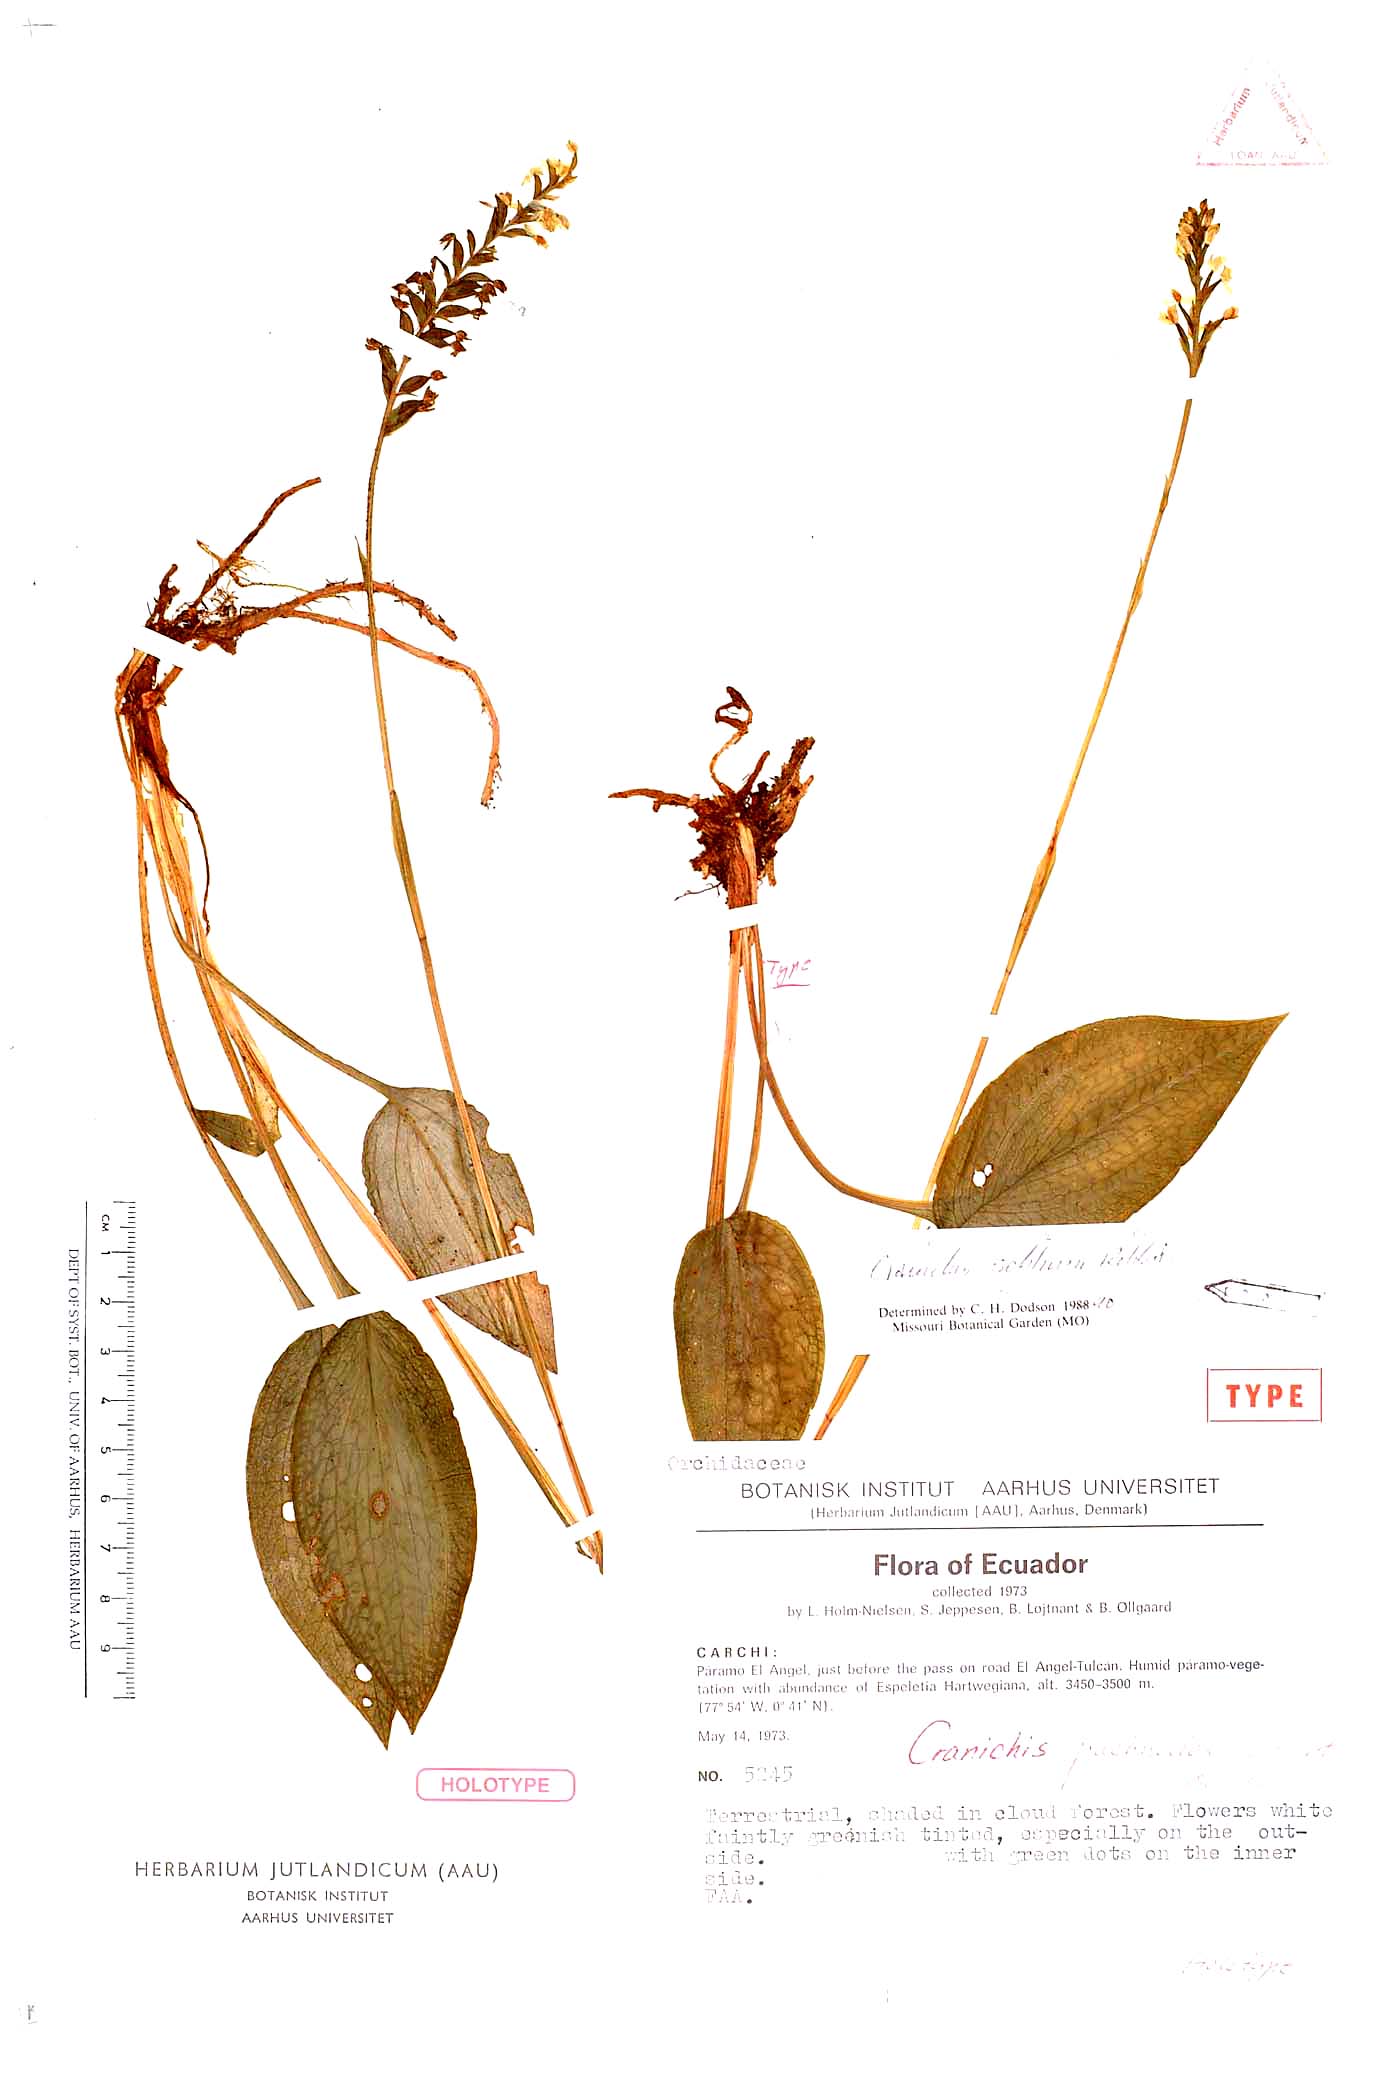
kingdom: Plantae
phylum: Tracheophyta
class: Liliopsida
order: Asparagales
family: Orchidaceae
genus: Cranichis
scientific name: Cranichis schlimii
